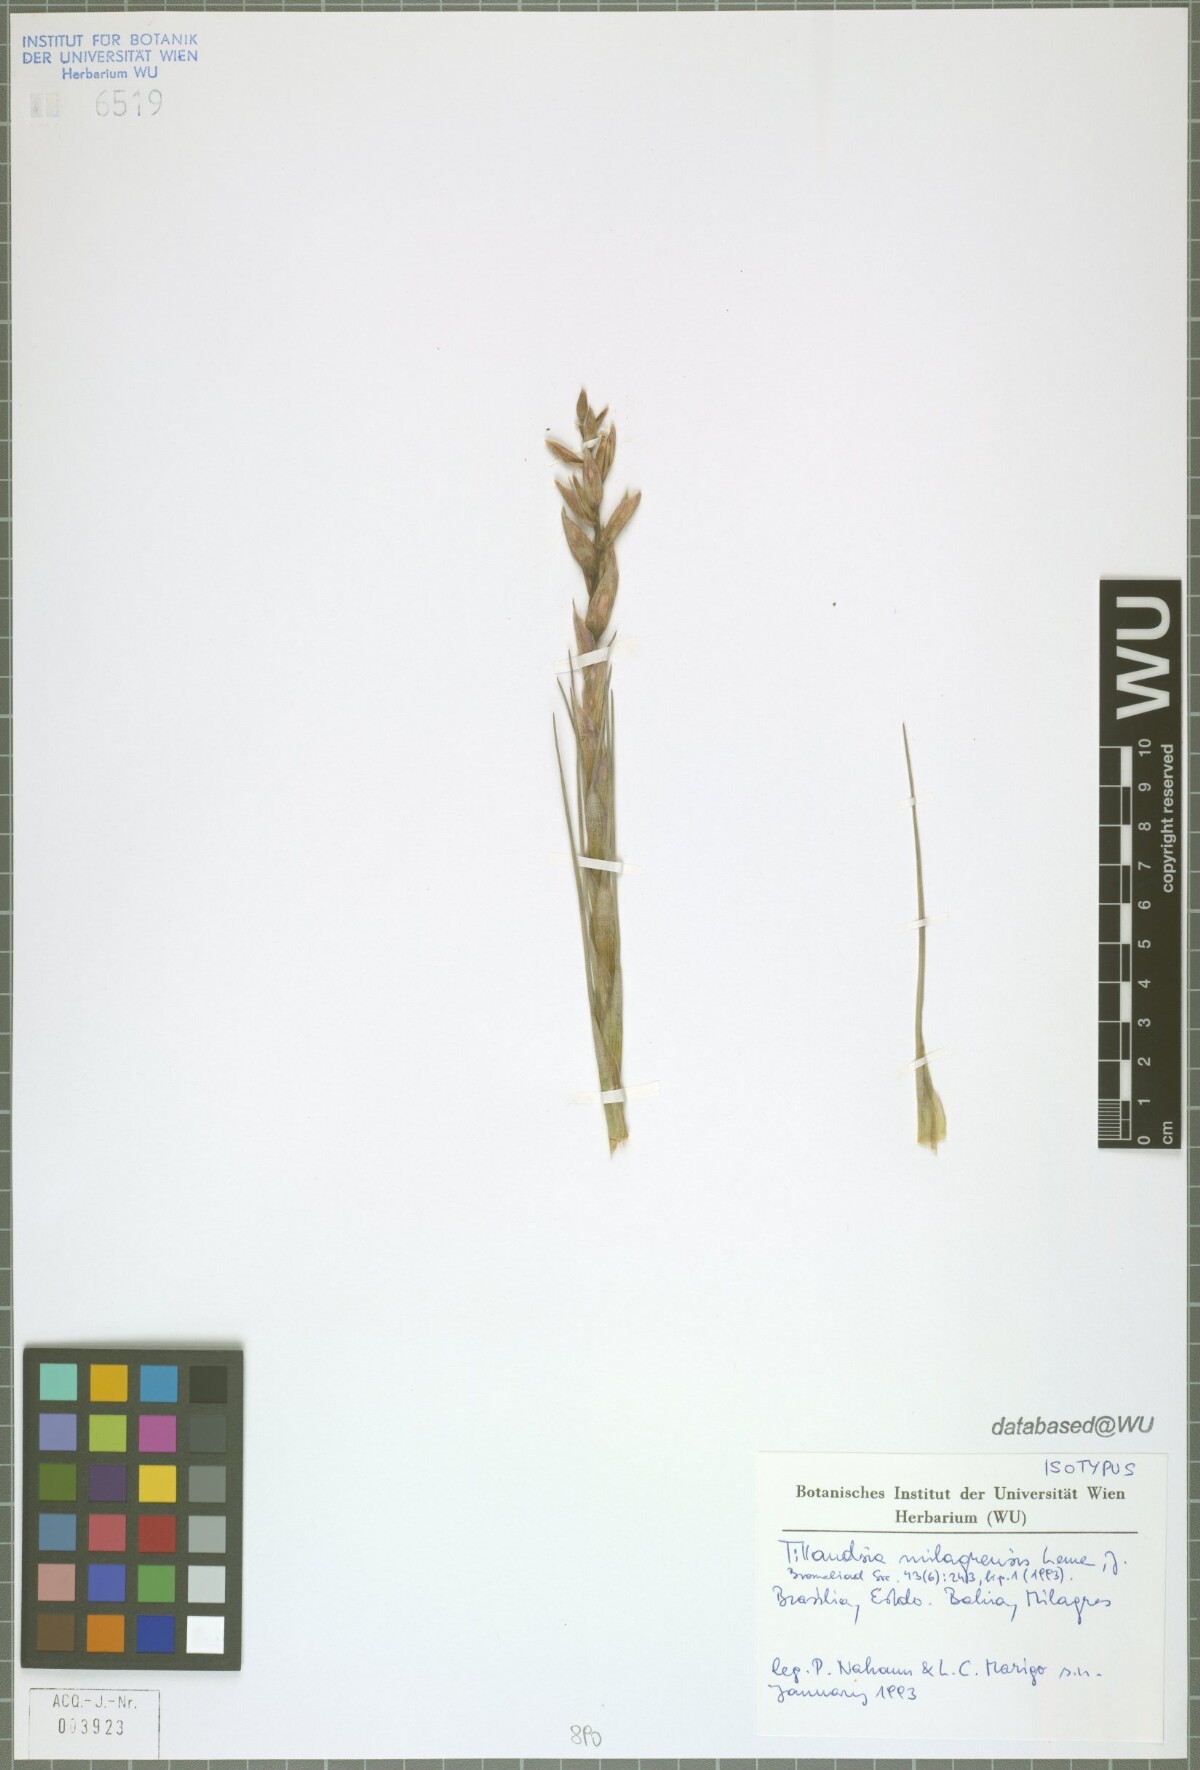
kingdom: Plantae
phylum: Tracheophyta
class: Liliopsida
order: Poales
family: Bromeliaceae
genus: Tillandsia
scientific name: Tillandsia milagrensis
